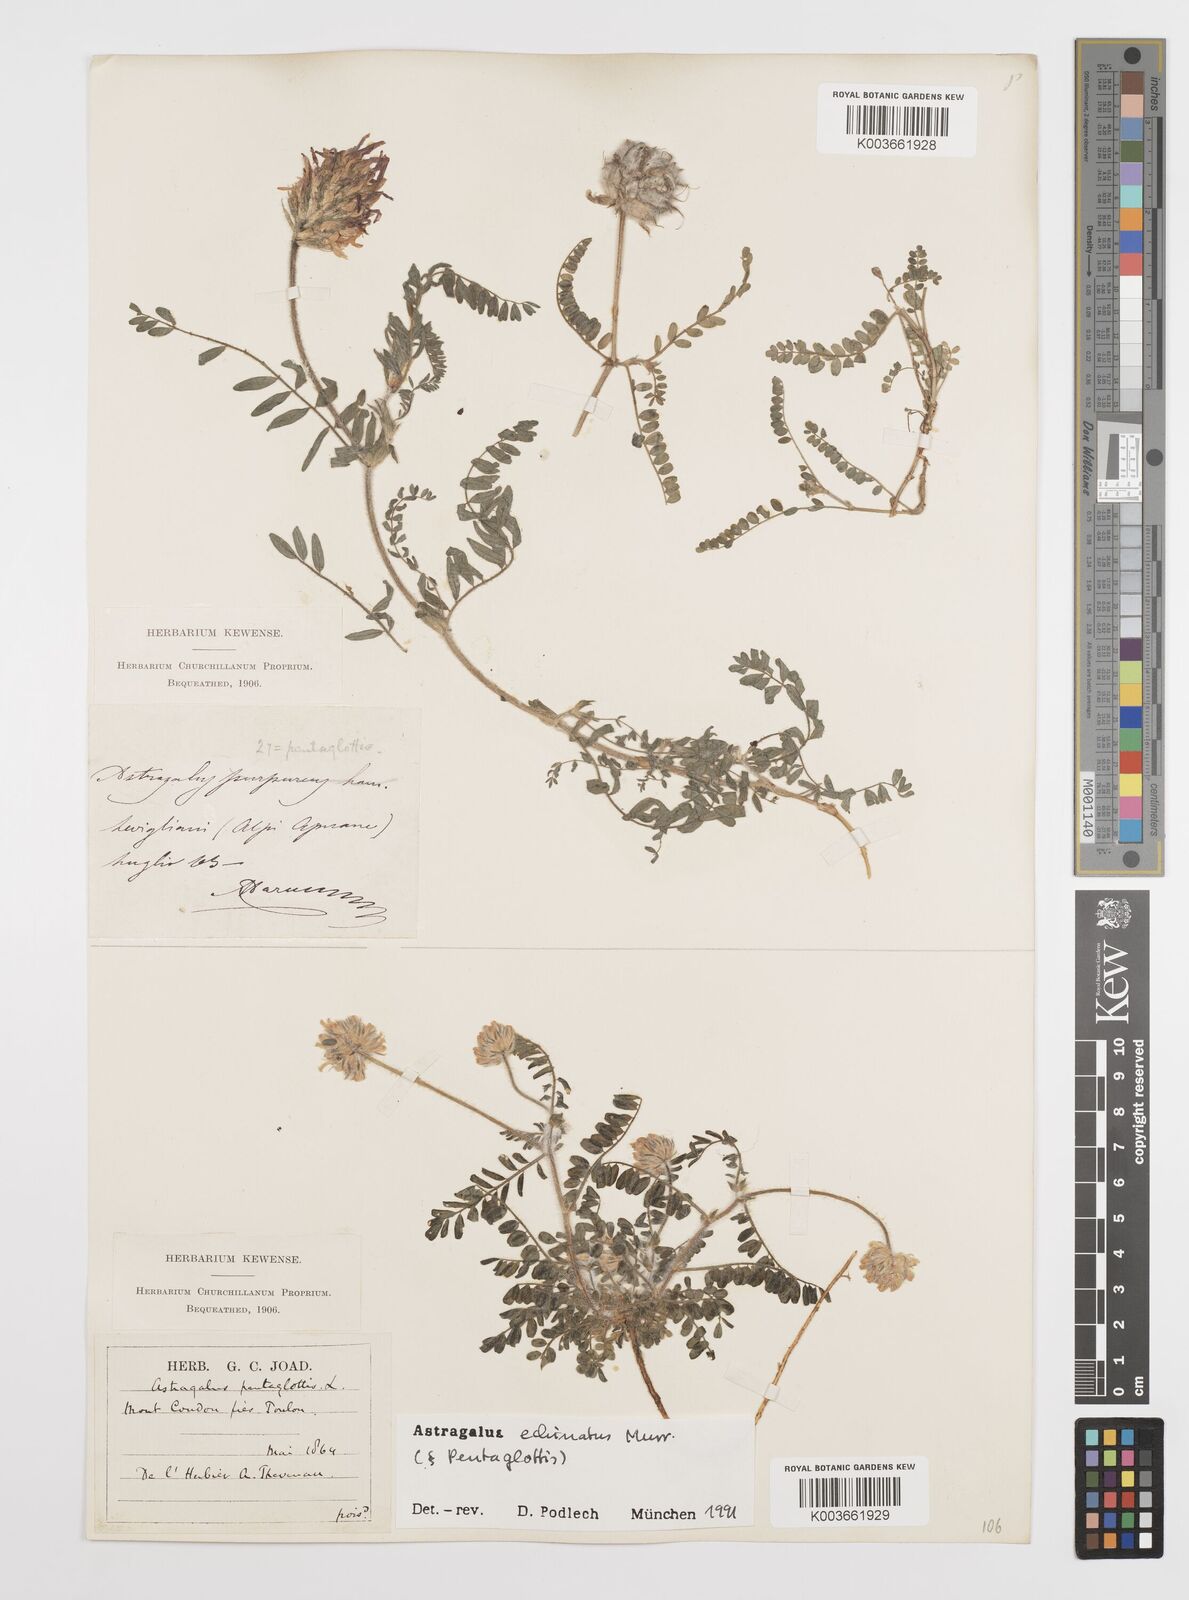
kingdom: Plantae
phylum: Tracheophyta
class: Magnoliopsida
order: Fabales
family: Fabaceae
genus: Astragalus
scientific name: Astragalus echinatus
